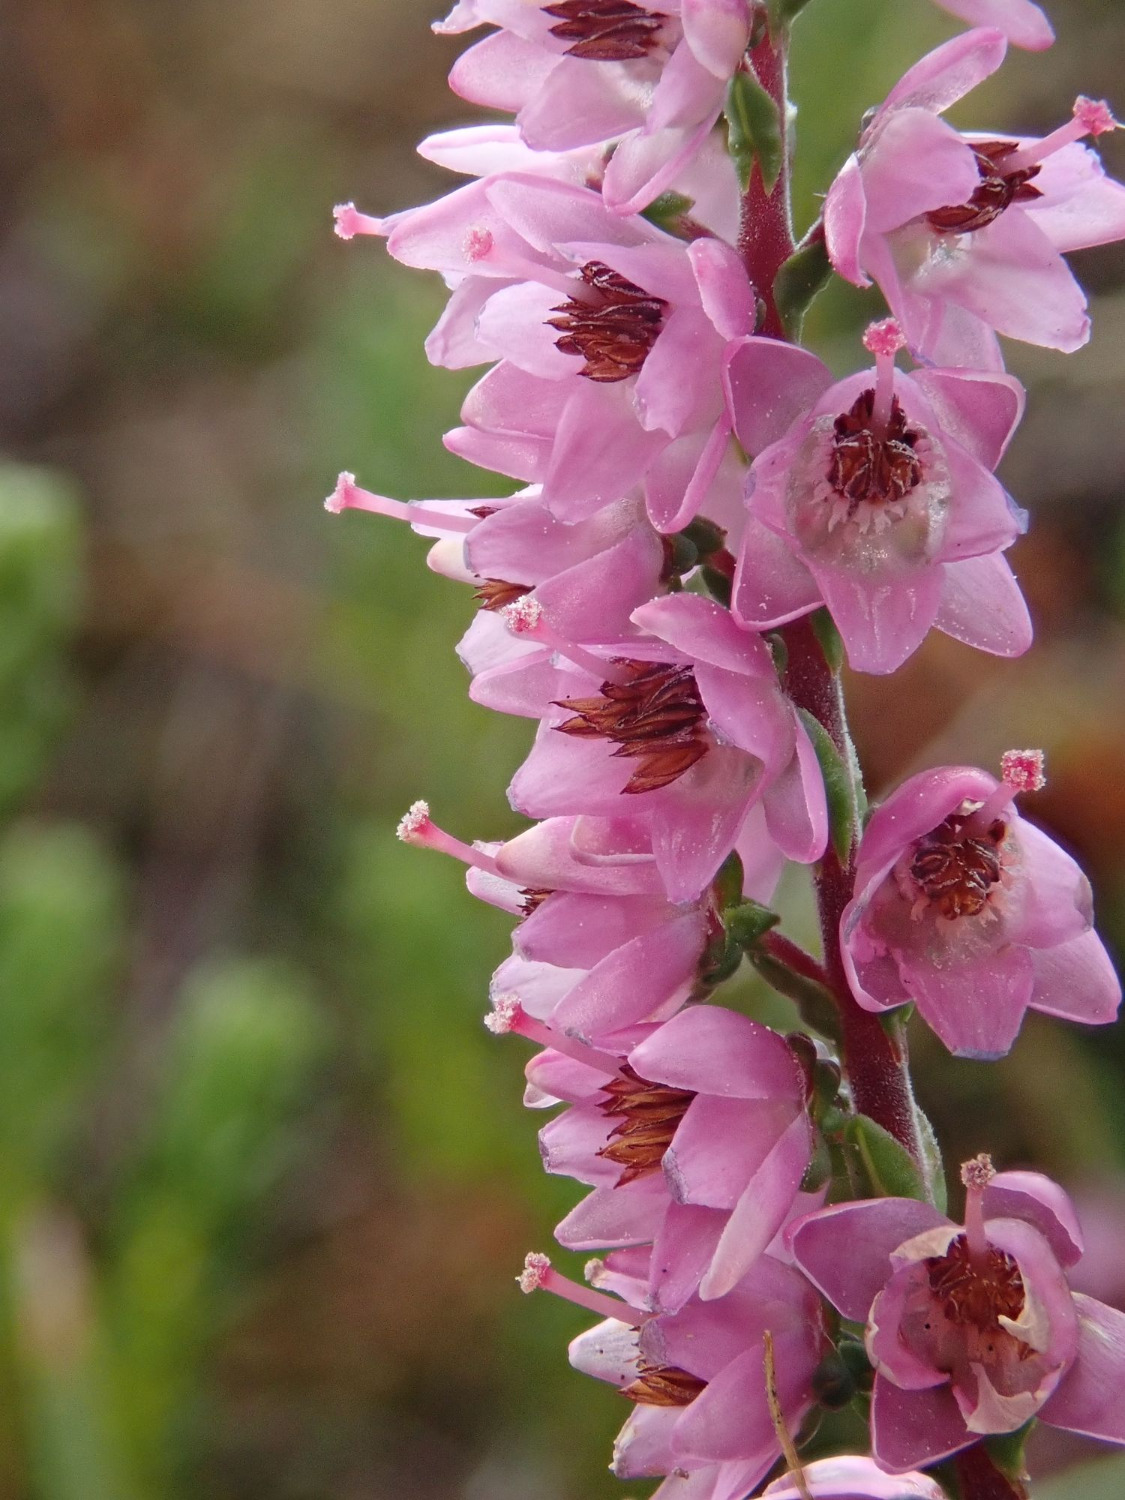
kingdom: Plantae
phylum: Tracheophyta
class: Magnoliopsida
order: Ericales
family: Ericaceae
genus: Calluna
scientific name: Calluna vulgaris
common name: Hedelyng
